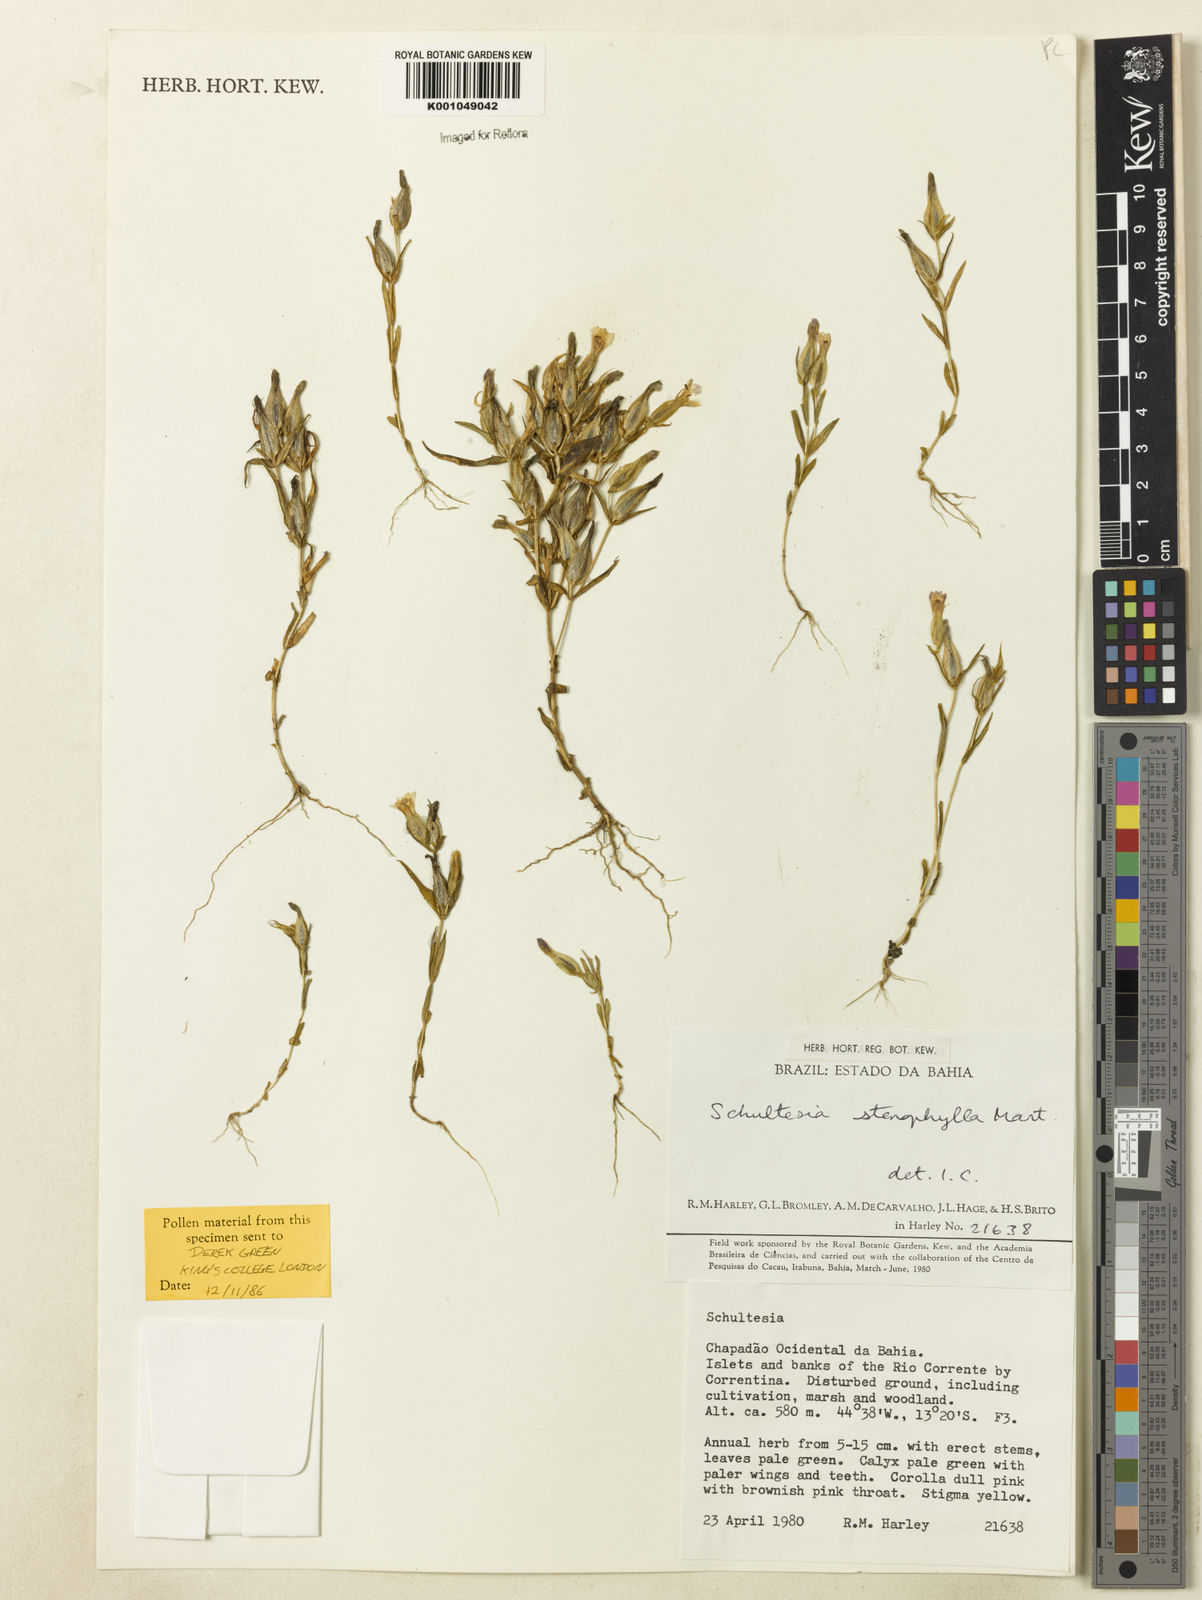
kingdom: Plantae
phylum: Tracheophyta
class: Magnoliopsida
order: Gentianales
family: Gentianaceae
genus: Schultesia
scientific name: Schultesia guianensis
